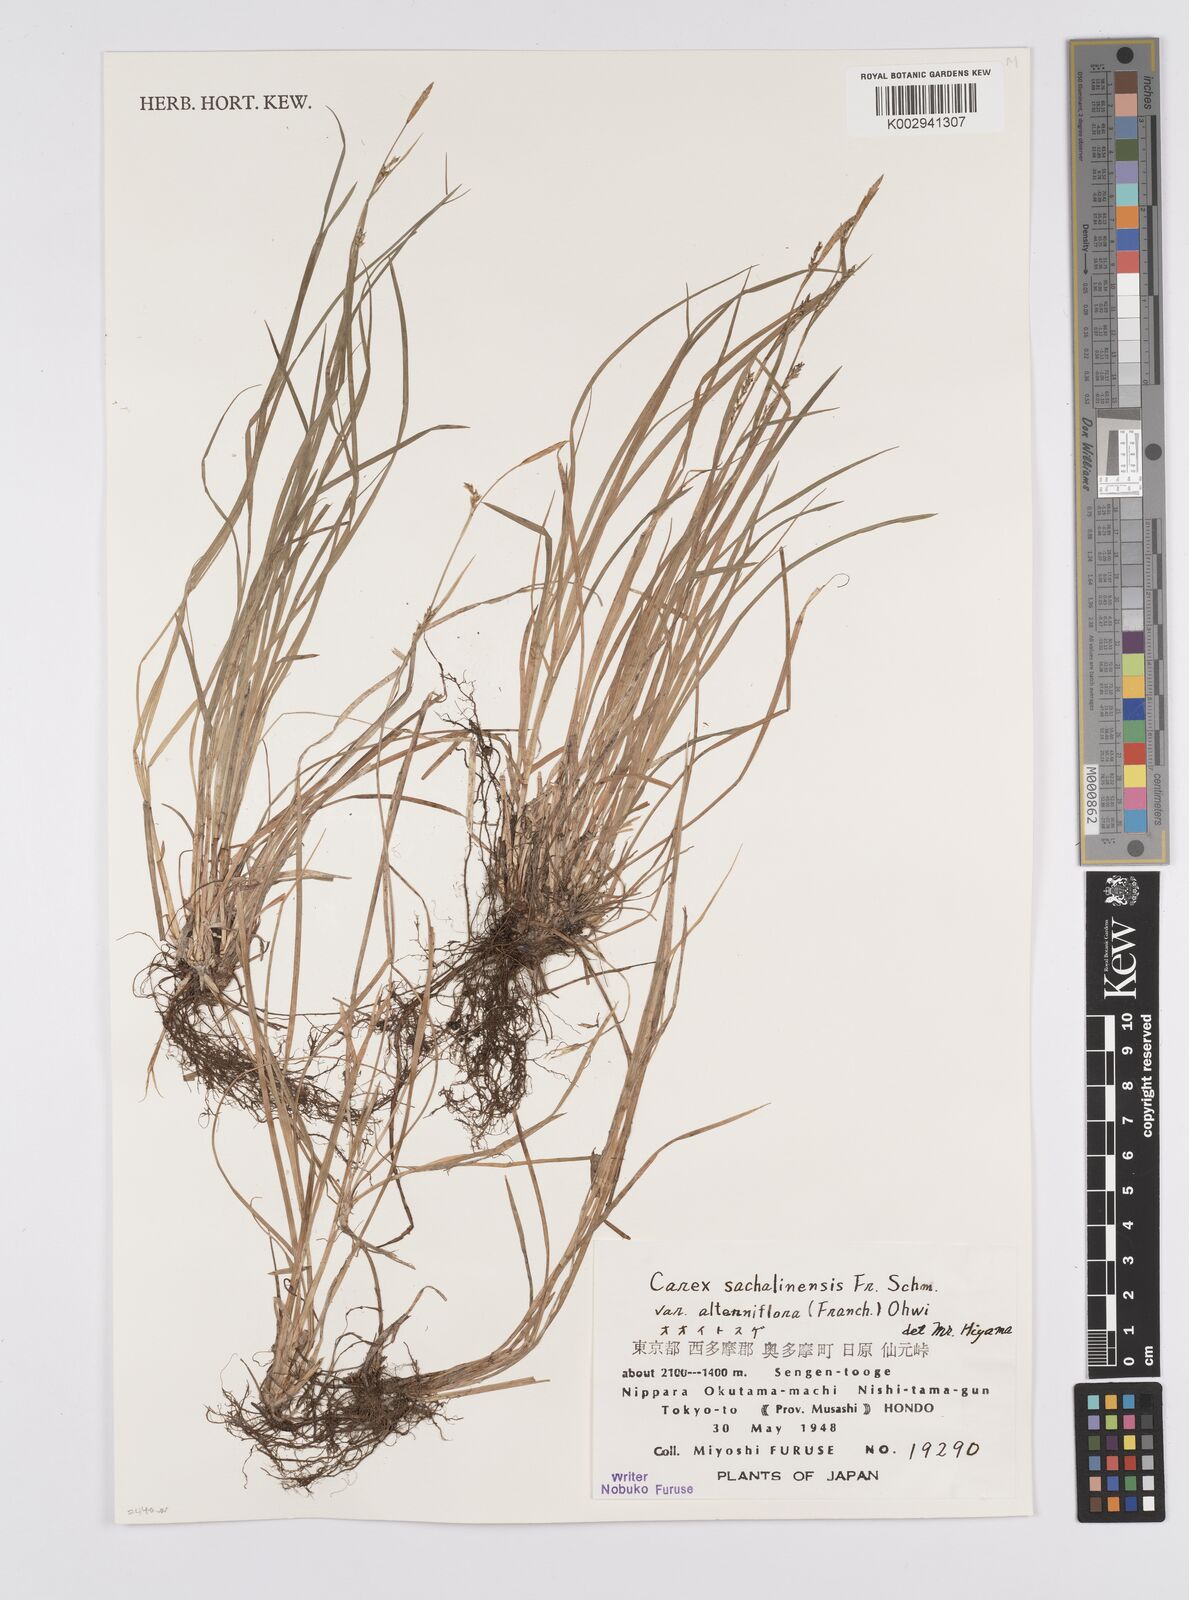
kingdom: Plantae
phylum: Tracheophyta
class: Liliopsida
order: Poales
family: Cyperaceae
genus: Carex
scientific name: Carex pisiformis
